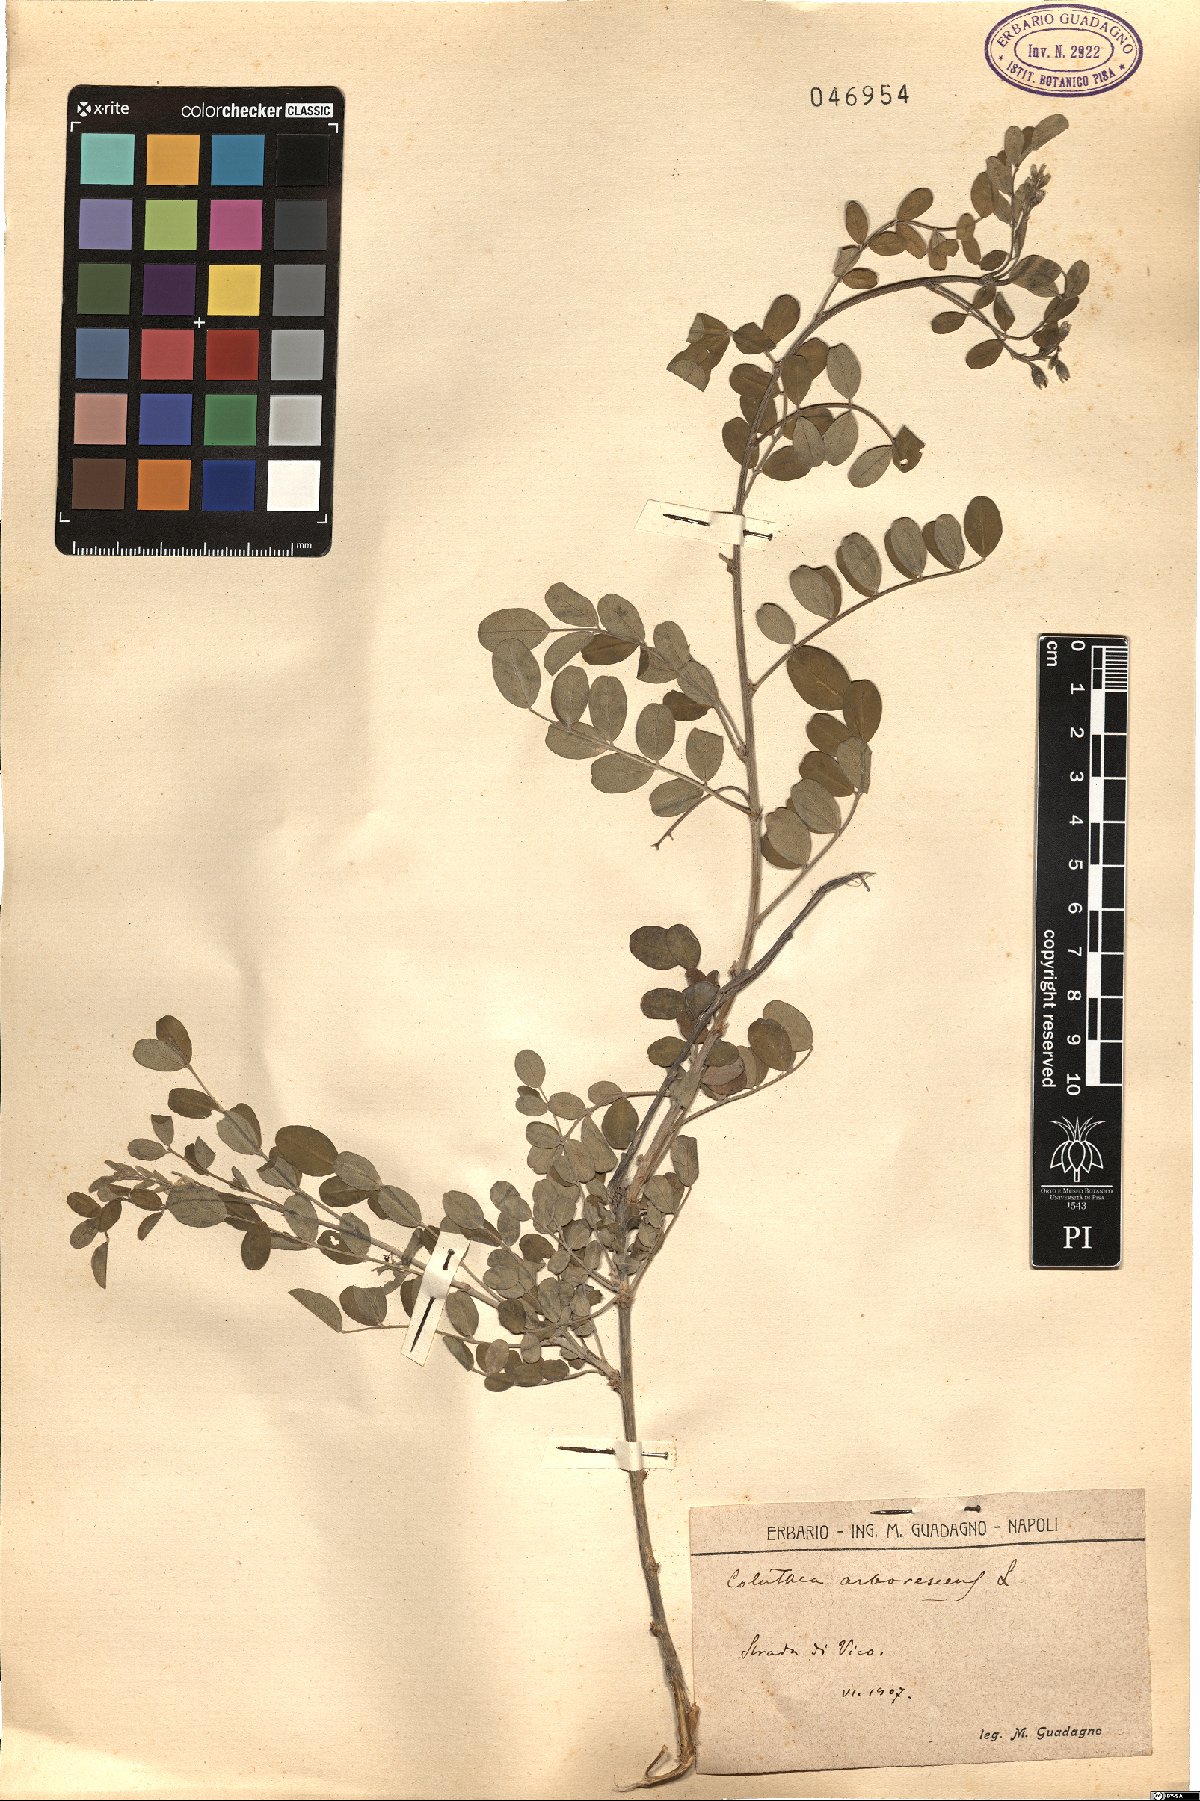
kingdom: Plantae
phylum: Tracheophyta
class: Magnoliopsida
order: Fabales
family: Fabaceae
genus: Colutea
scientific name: Colutea arborescens
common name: Bladder-senna
